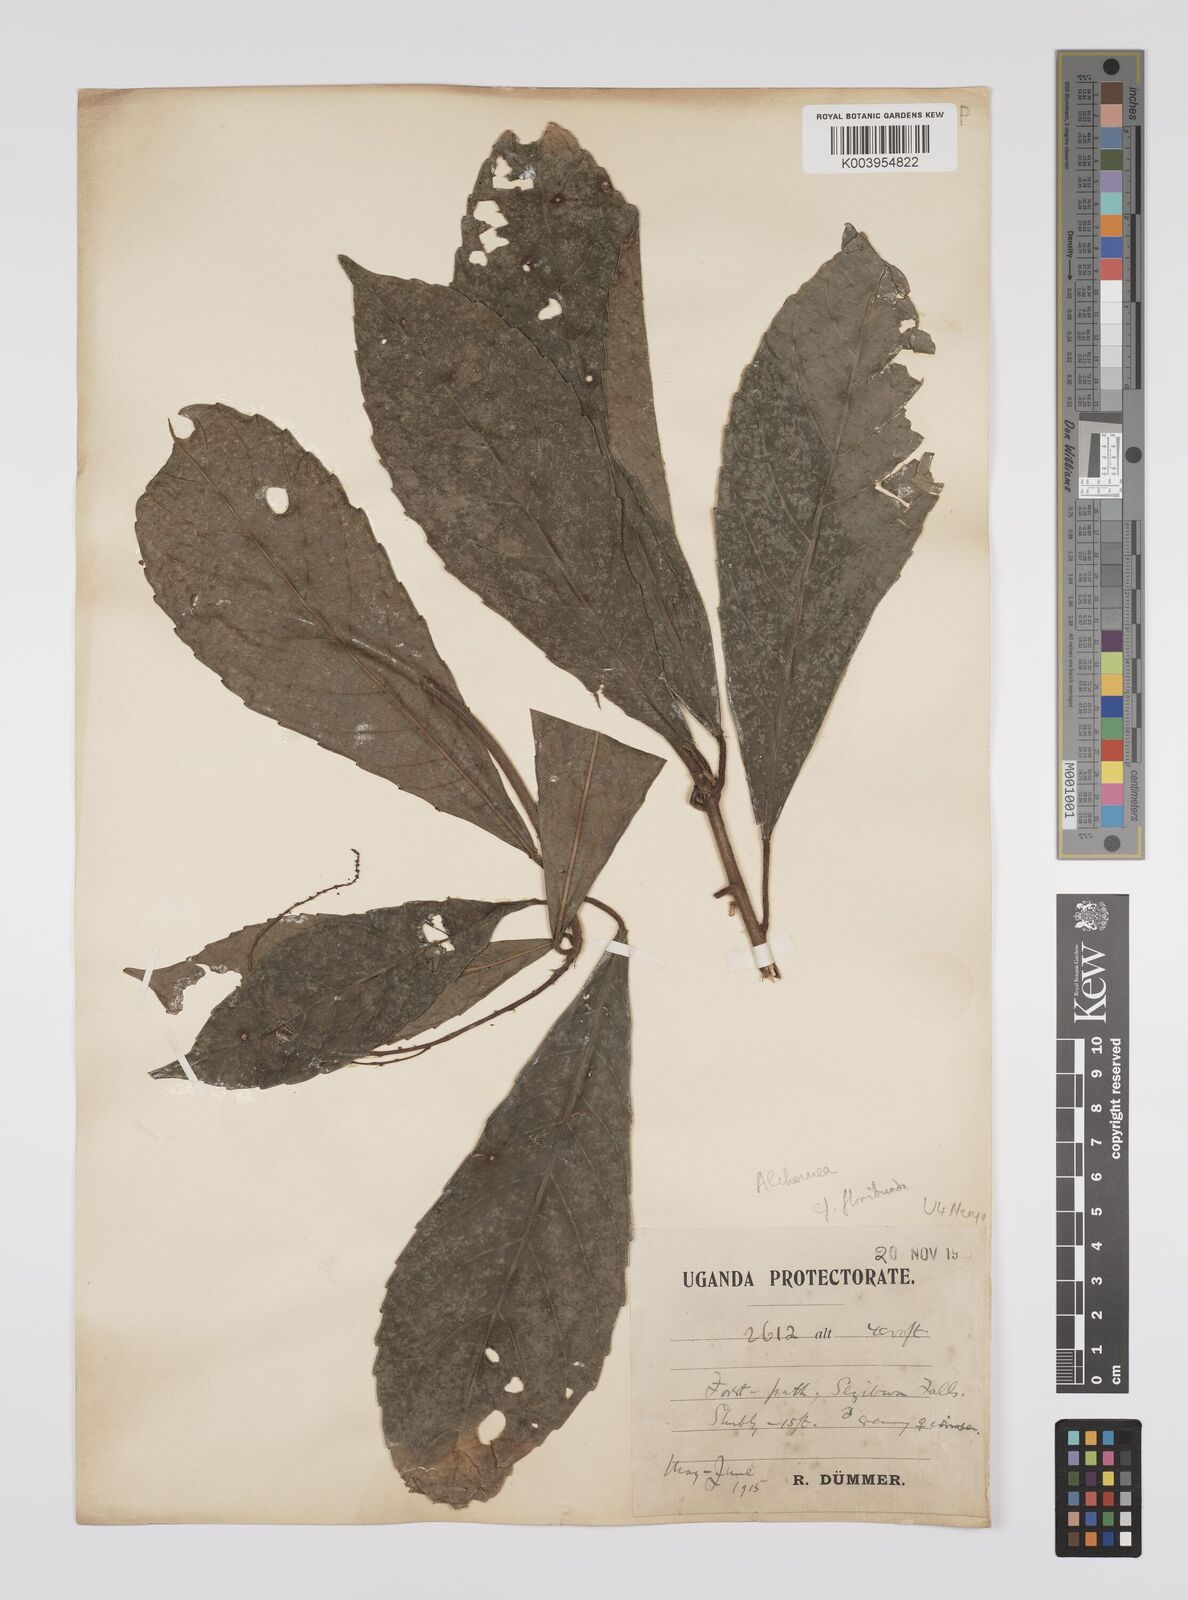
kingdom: Plantae
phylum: Tracheophyta
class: Magnoliopsida
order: Malpighiales
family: Euphorbiaceae
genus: Alchornea
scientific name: Alchornea floribunda
